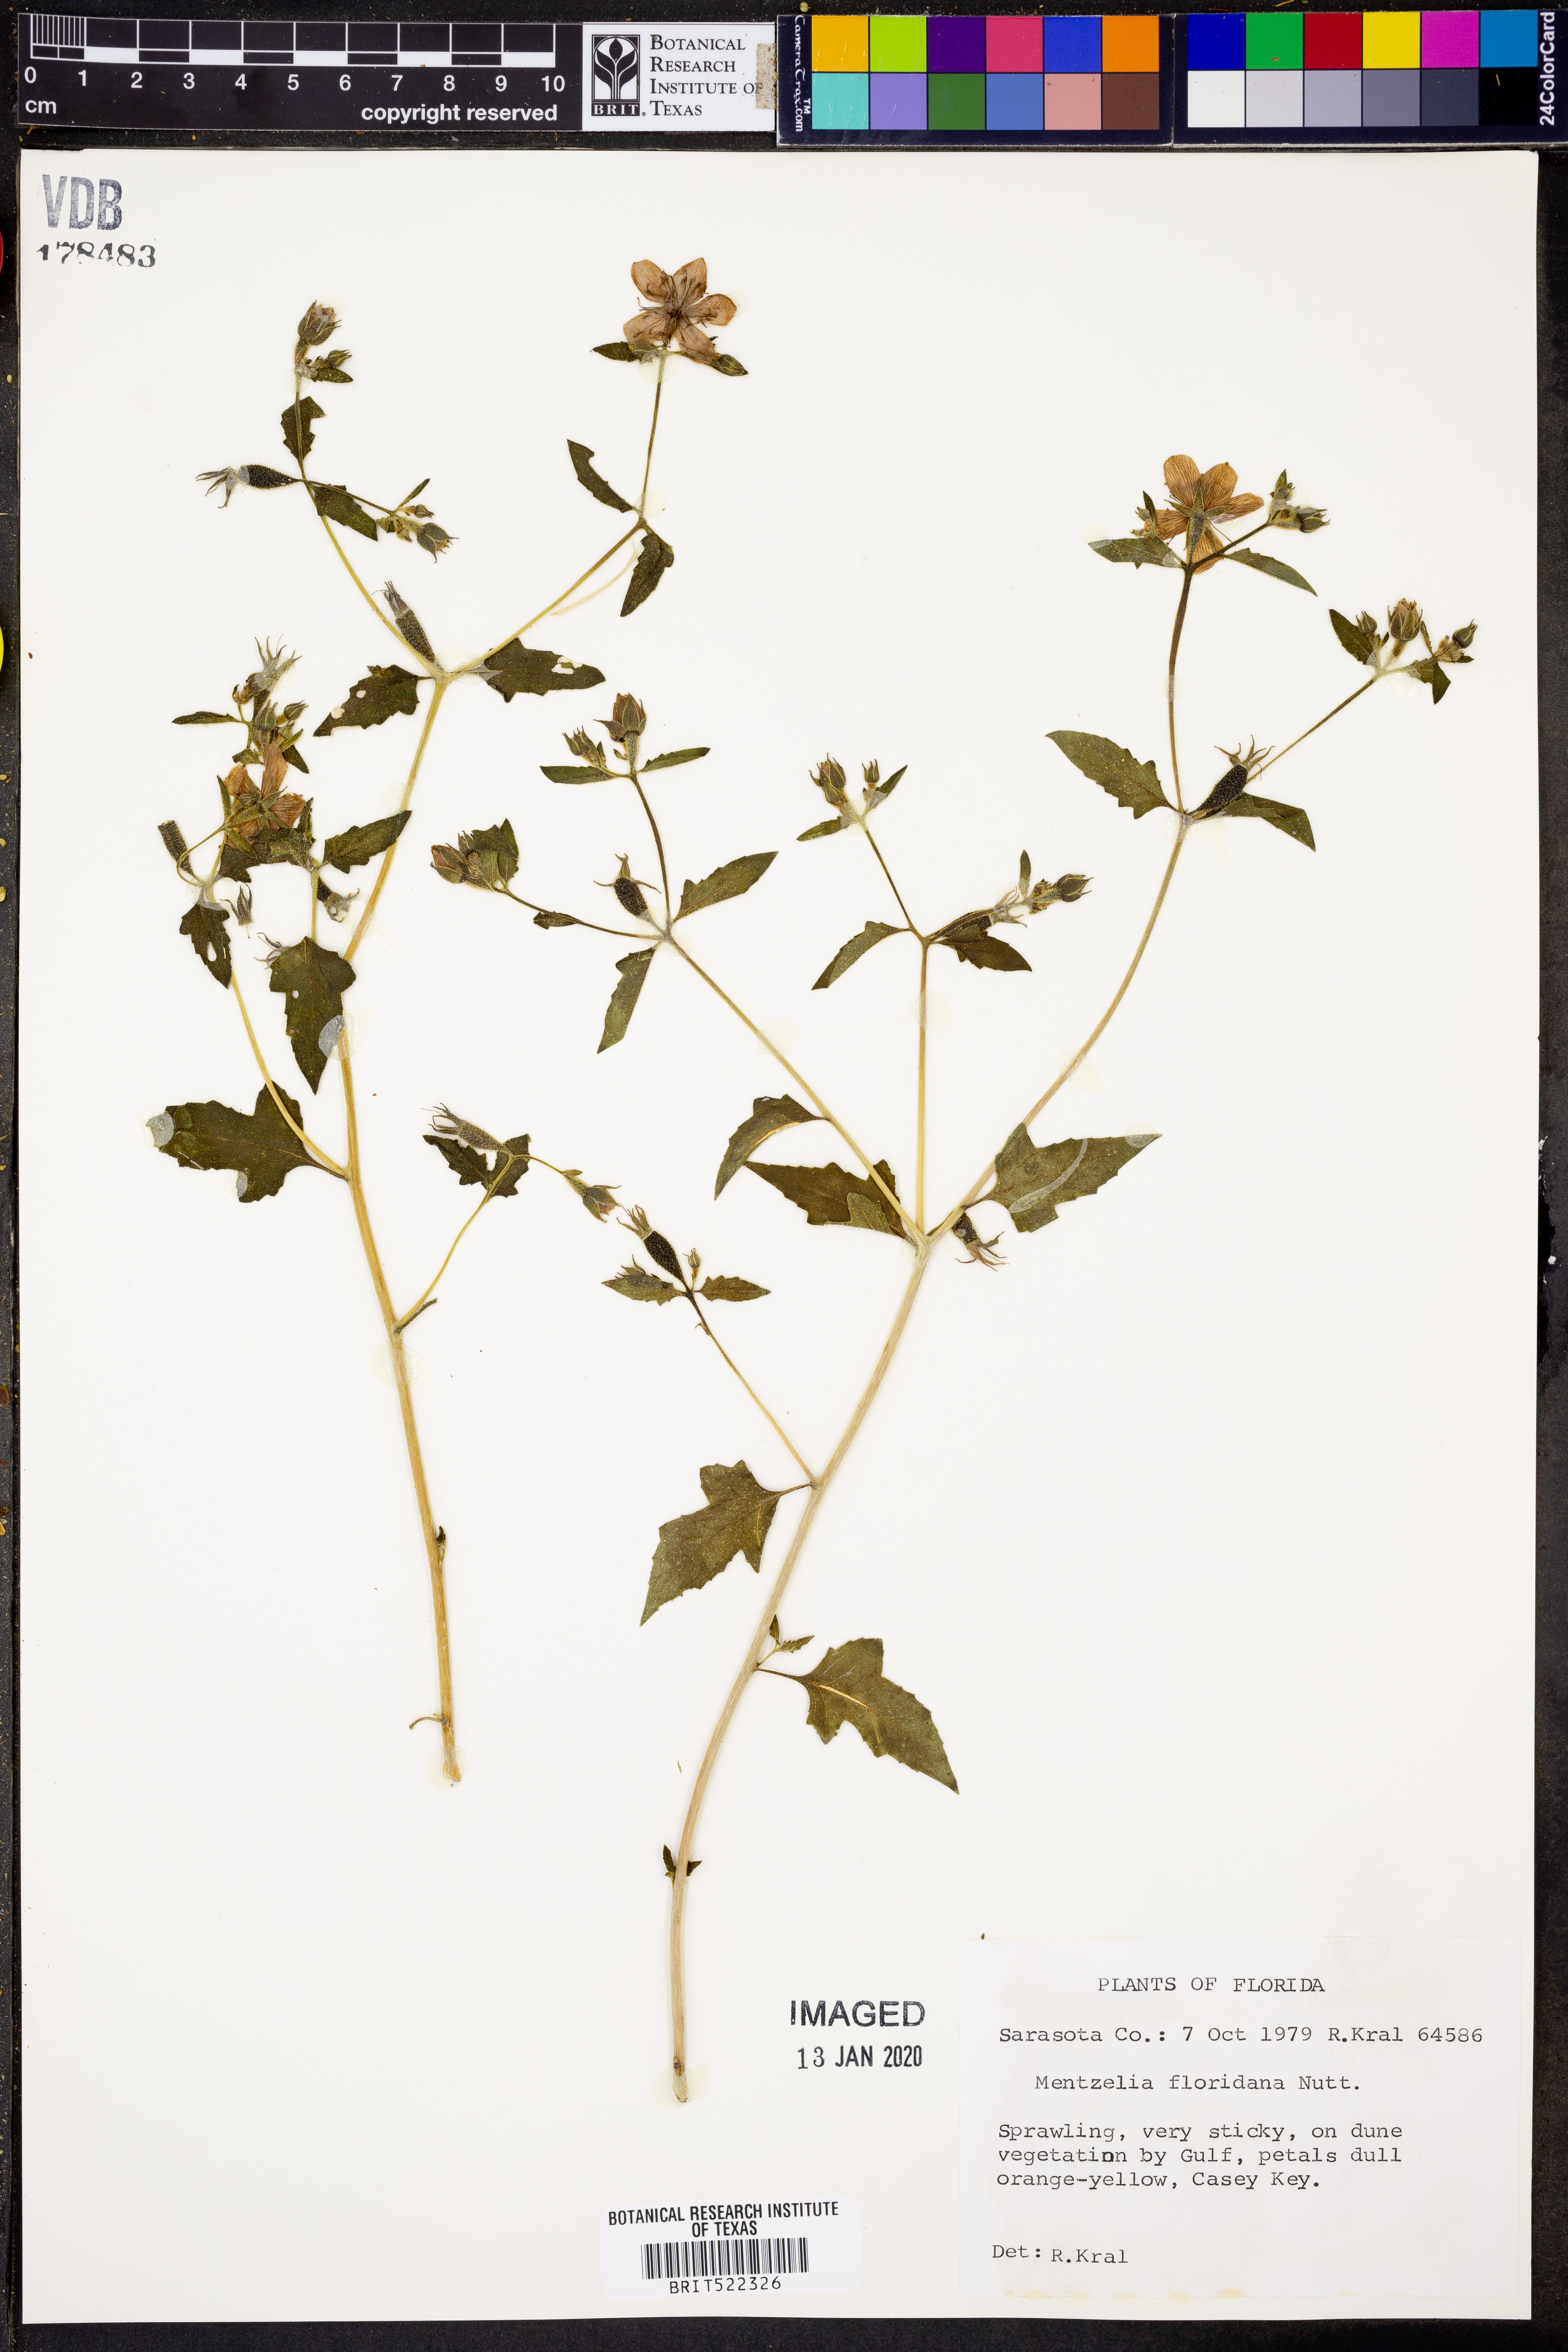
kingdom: Plantae
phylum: Tracheophyta
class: Magnoliopsida
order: Cornales
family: Loasaceae
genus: Mentzelia
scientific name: Mentzelia floridana
